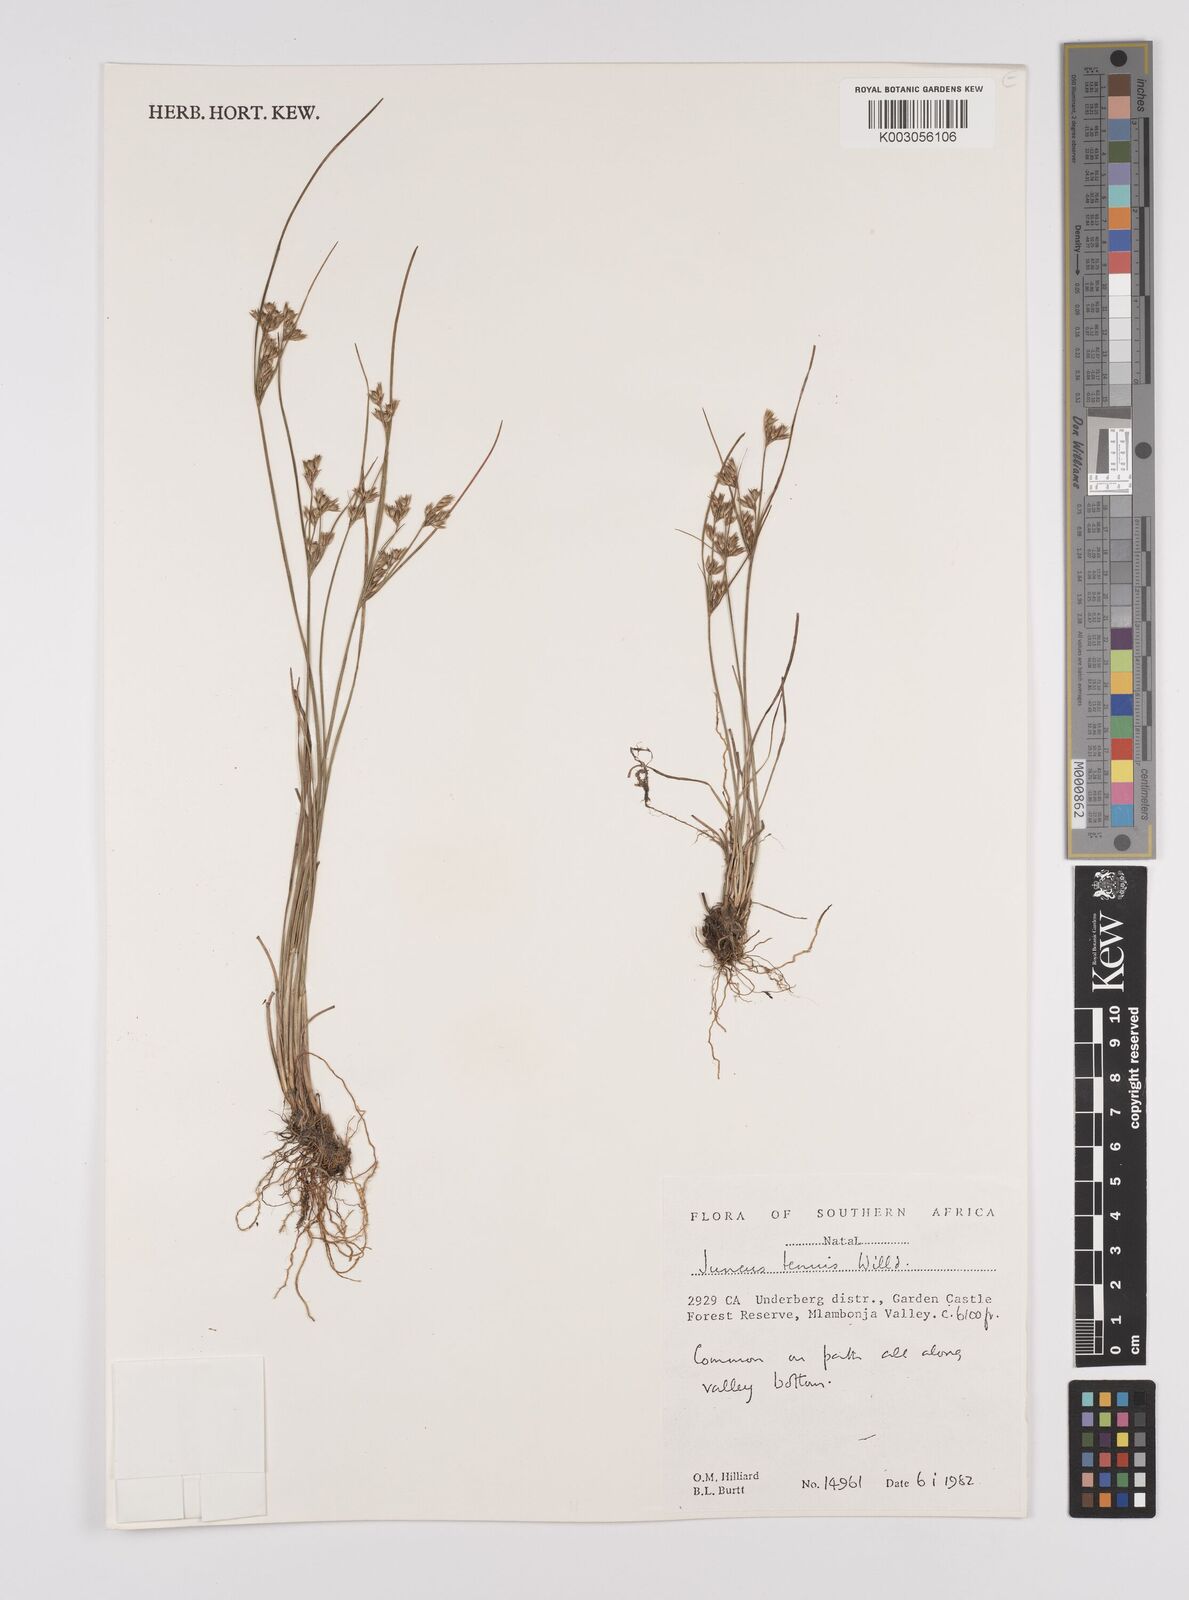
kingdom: Plantae
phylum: Tracheophyta
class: Liliopsida
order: Poales
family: Juncaceae
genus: Juncus
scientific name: Juncus tenuis
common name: Slender rush
